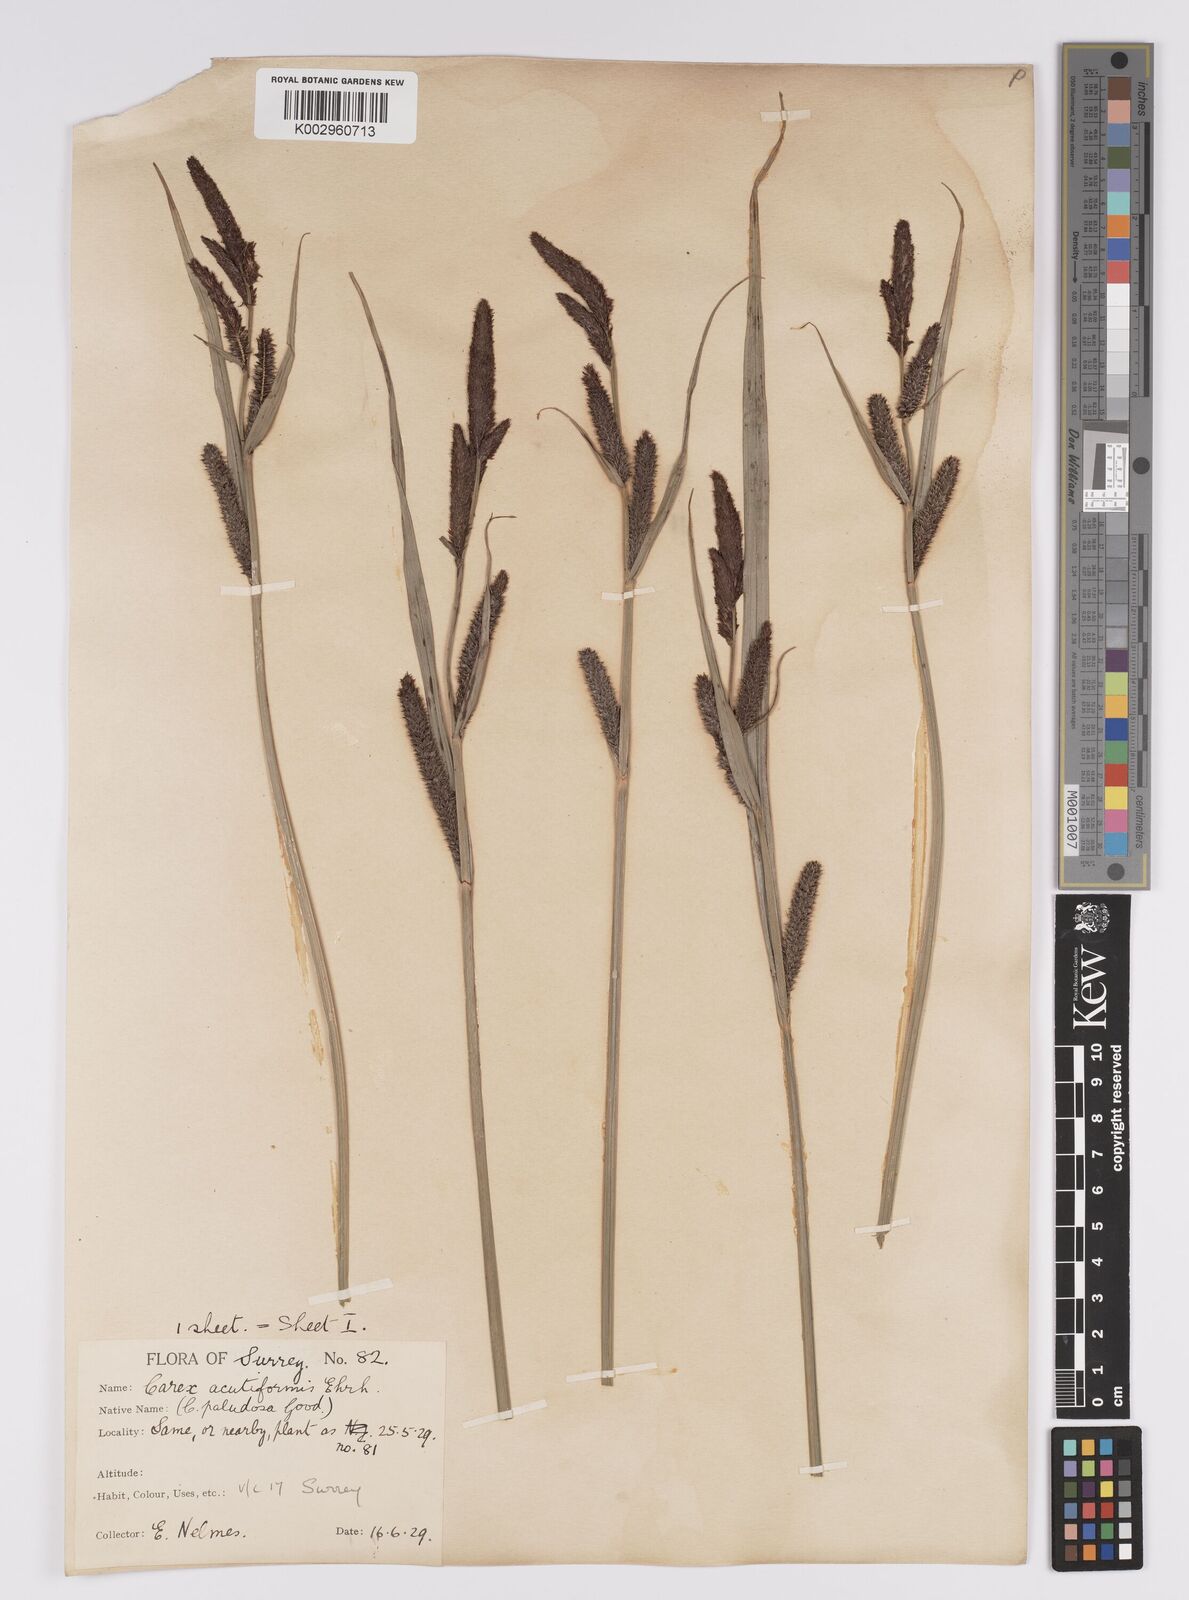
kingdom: Plantae
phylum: Tracheophyta
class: Liliopsida
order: Poales
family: Cyperaceae
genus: Carex
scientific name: Carex acutiformis
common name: Lesser pond-sedge
